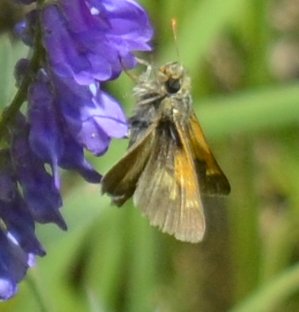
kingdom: Animalia
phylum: Arthropoda
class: Insecta
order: Lepidoptera
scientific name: Lepidoptera
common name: Butterflies
